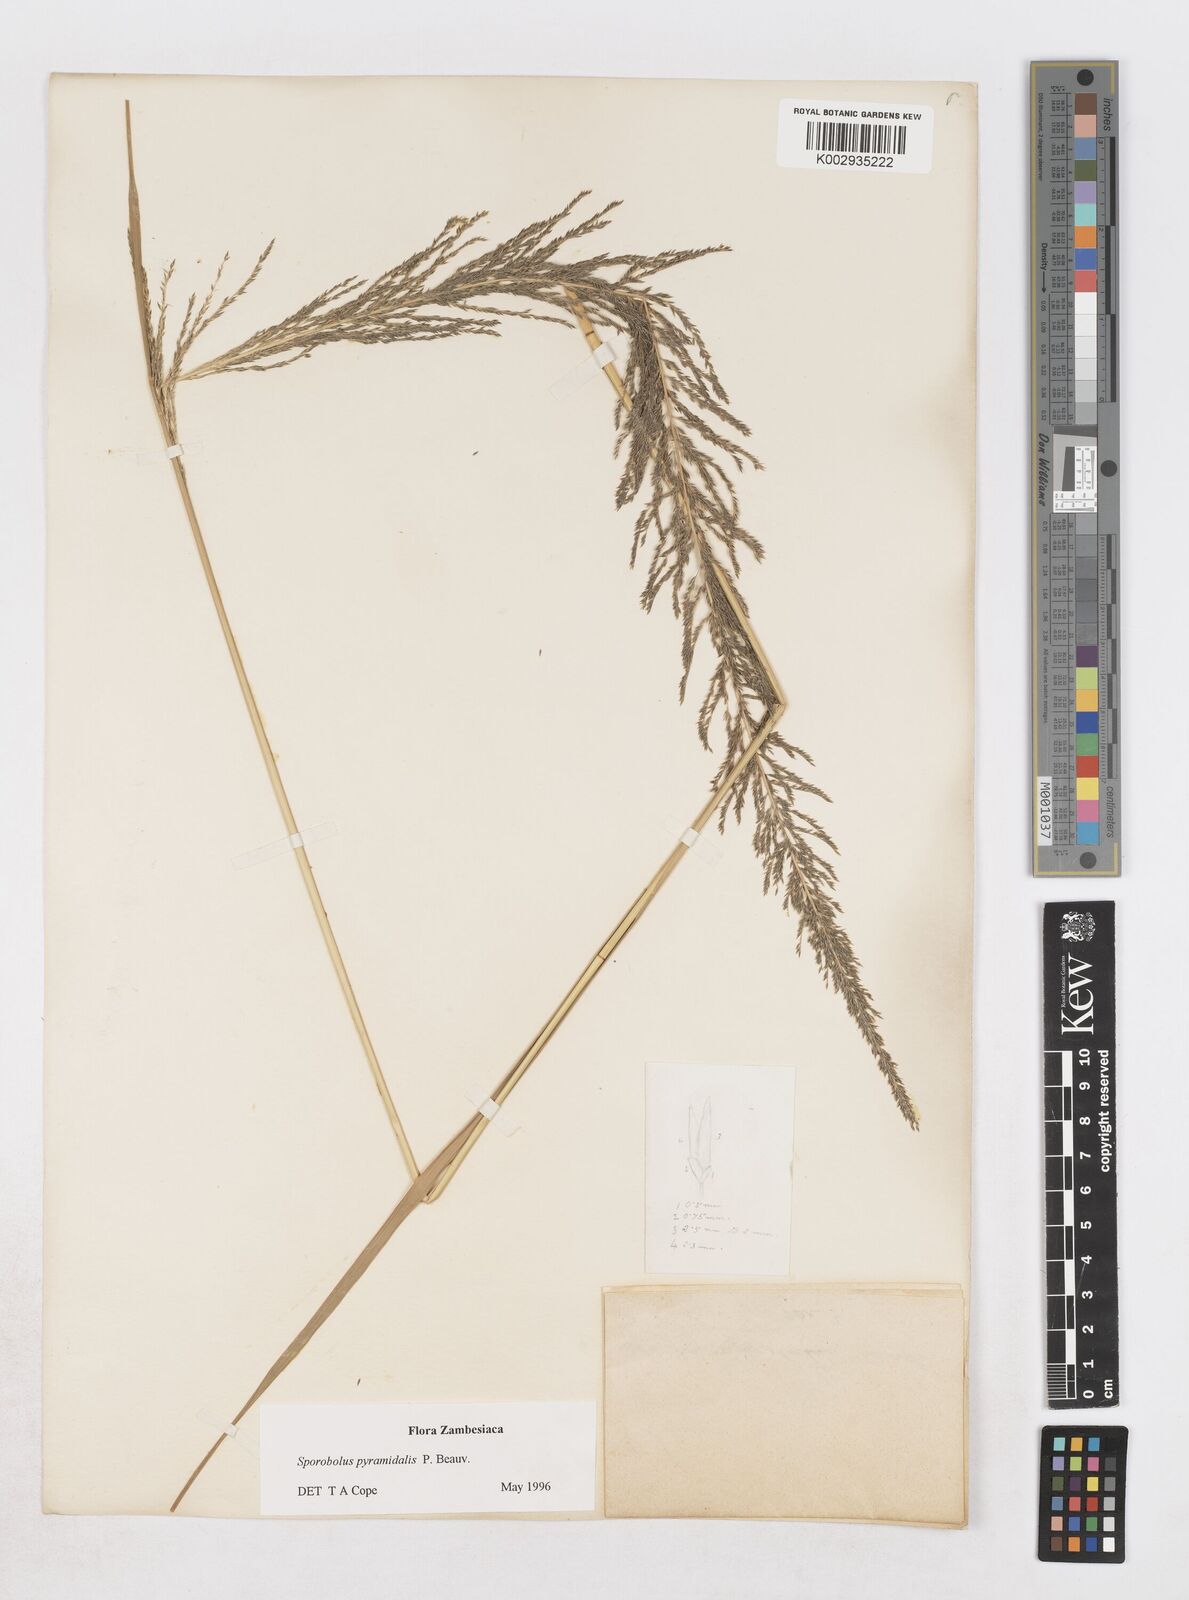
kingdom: Plantae
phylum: Tracheophyta
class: Liliopsida
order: Poales
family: Poaceae
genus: Sporobolus
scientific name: Sporobolus pyramidalis
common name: West indian dropseed
